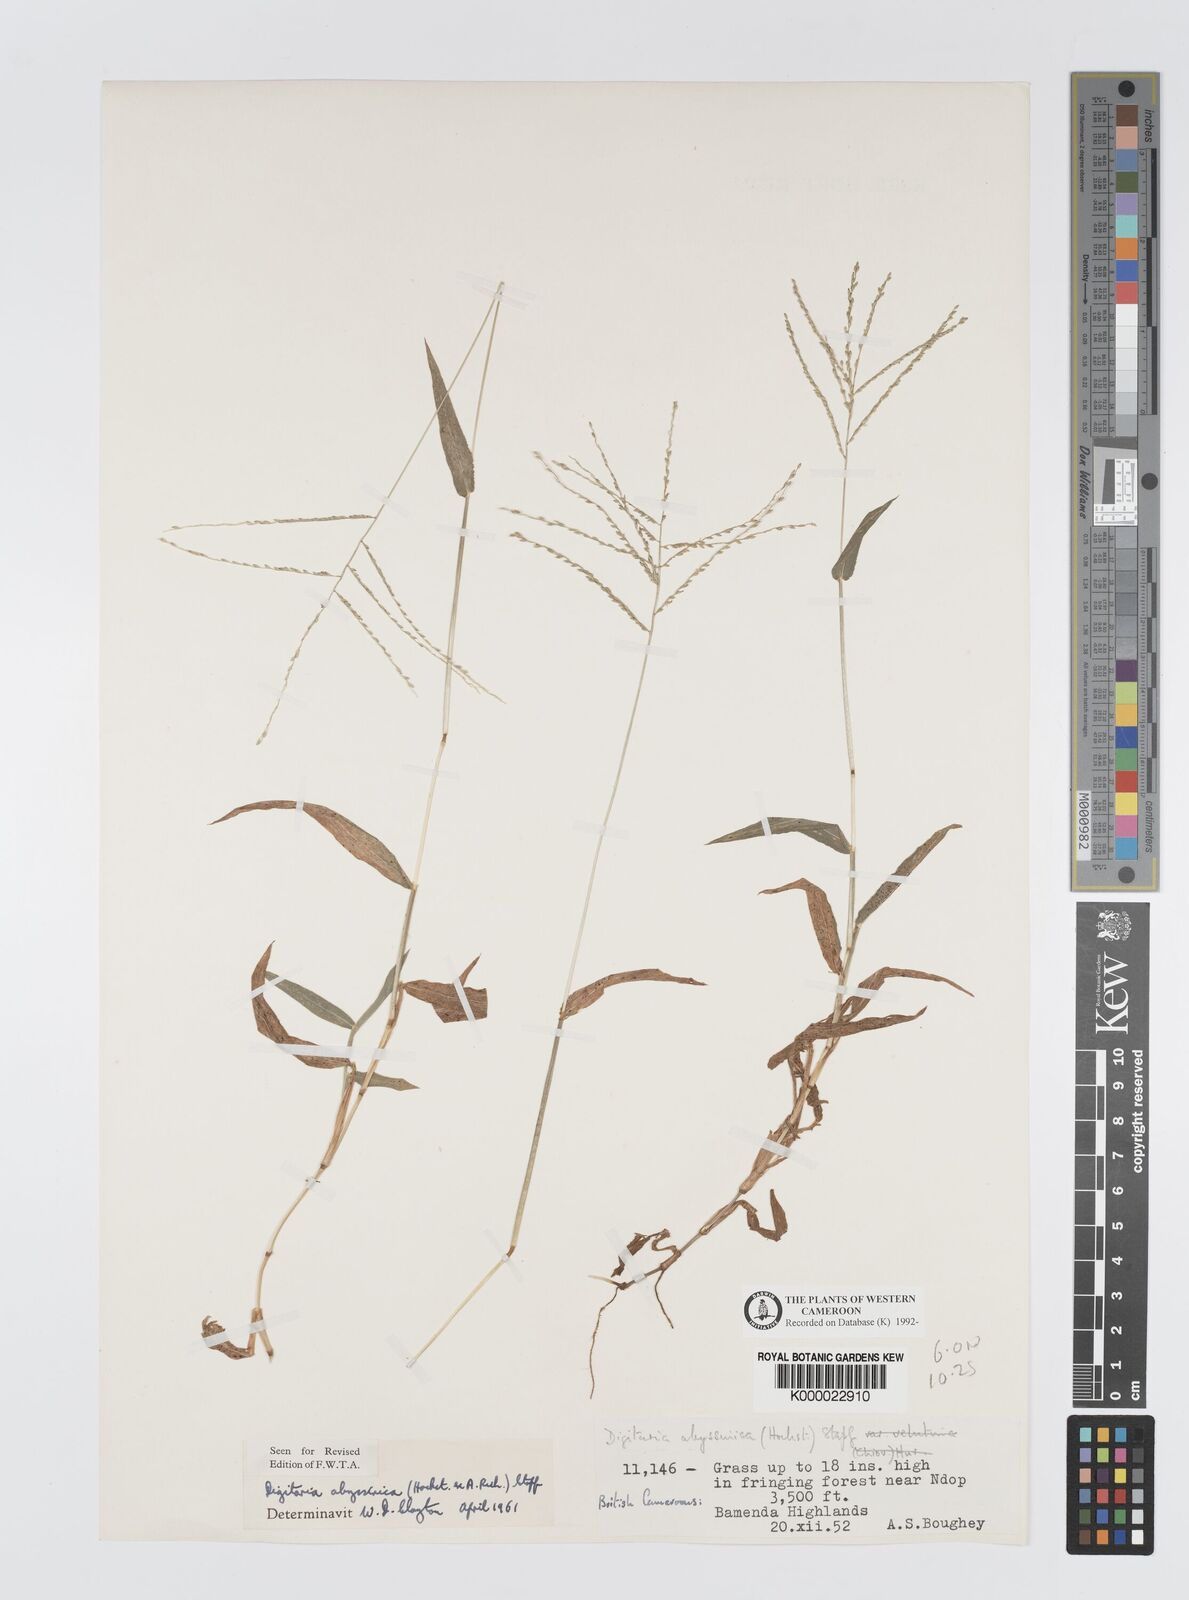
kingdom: Plantae
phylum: Tracheophyta
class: Liliopsida
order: Poales
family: Poaceae
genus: Digitaria
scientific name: Digitaria abyssinica
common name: African couchgrass
